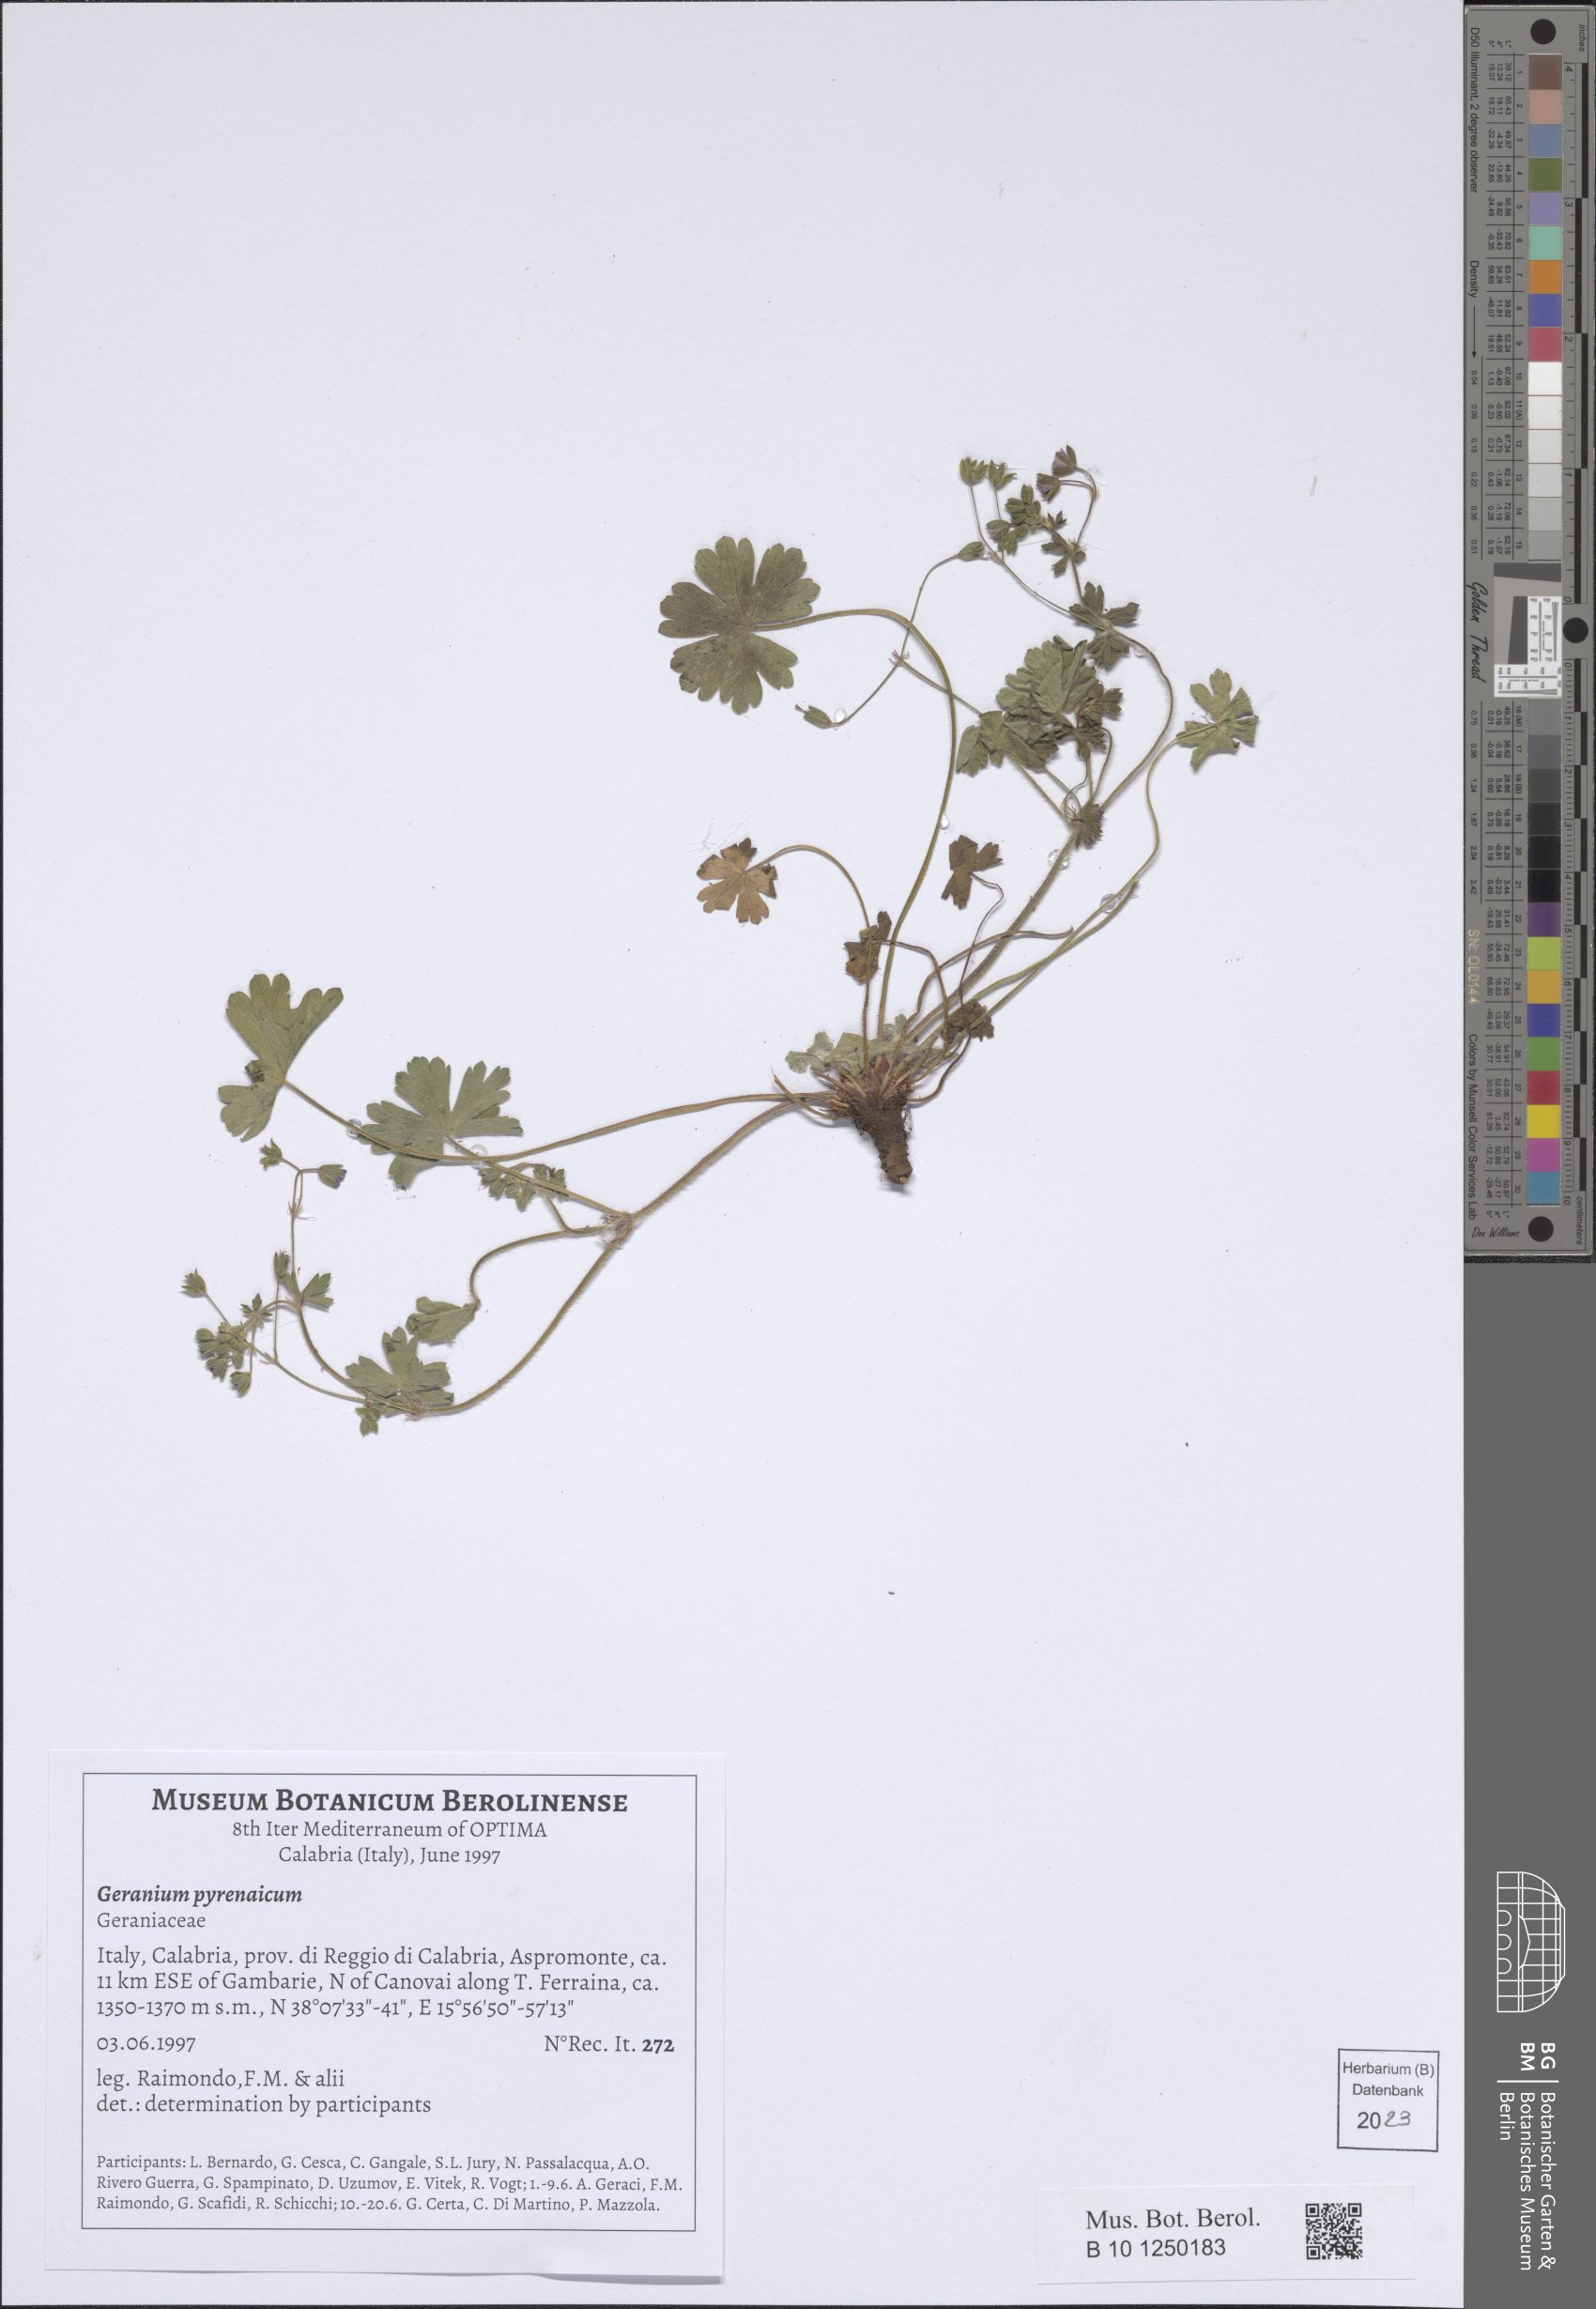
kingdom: Plantae
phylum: Tracheophyta
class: Magnoliopsida
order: Geraniales
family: Geraniaceae
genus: Geranium
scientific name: Geranium pyrenaicum
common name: Hedgerow crane's-bill
